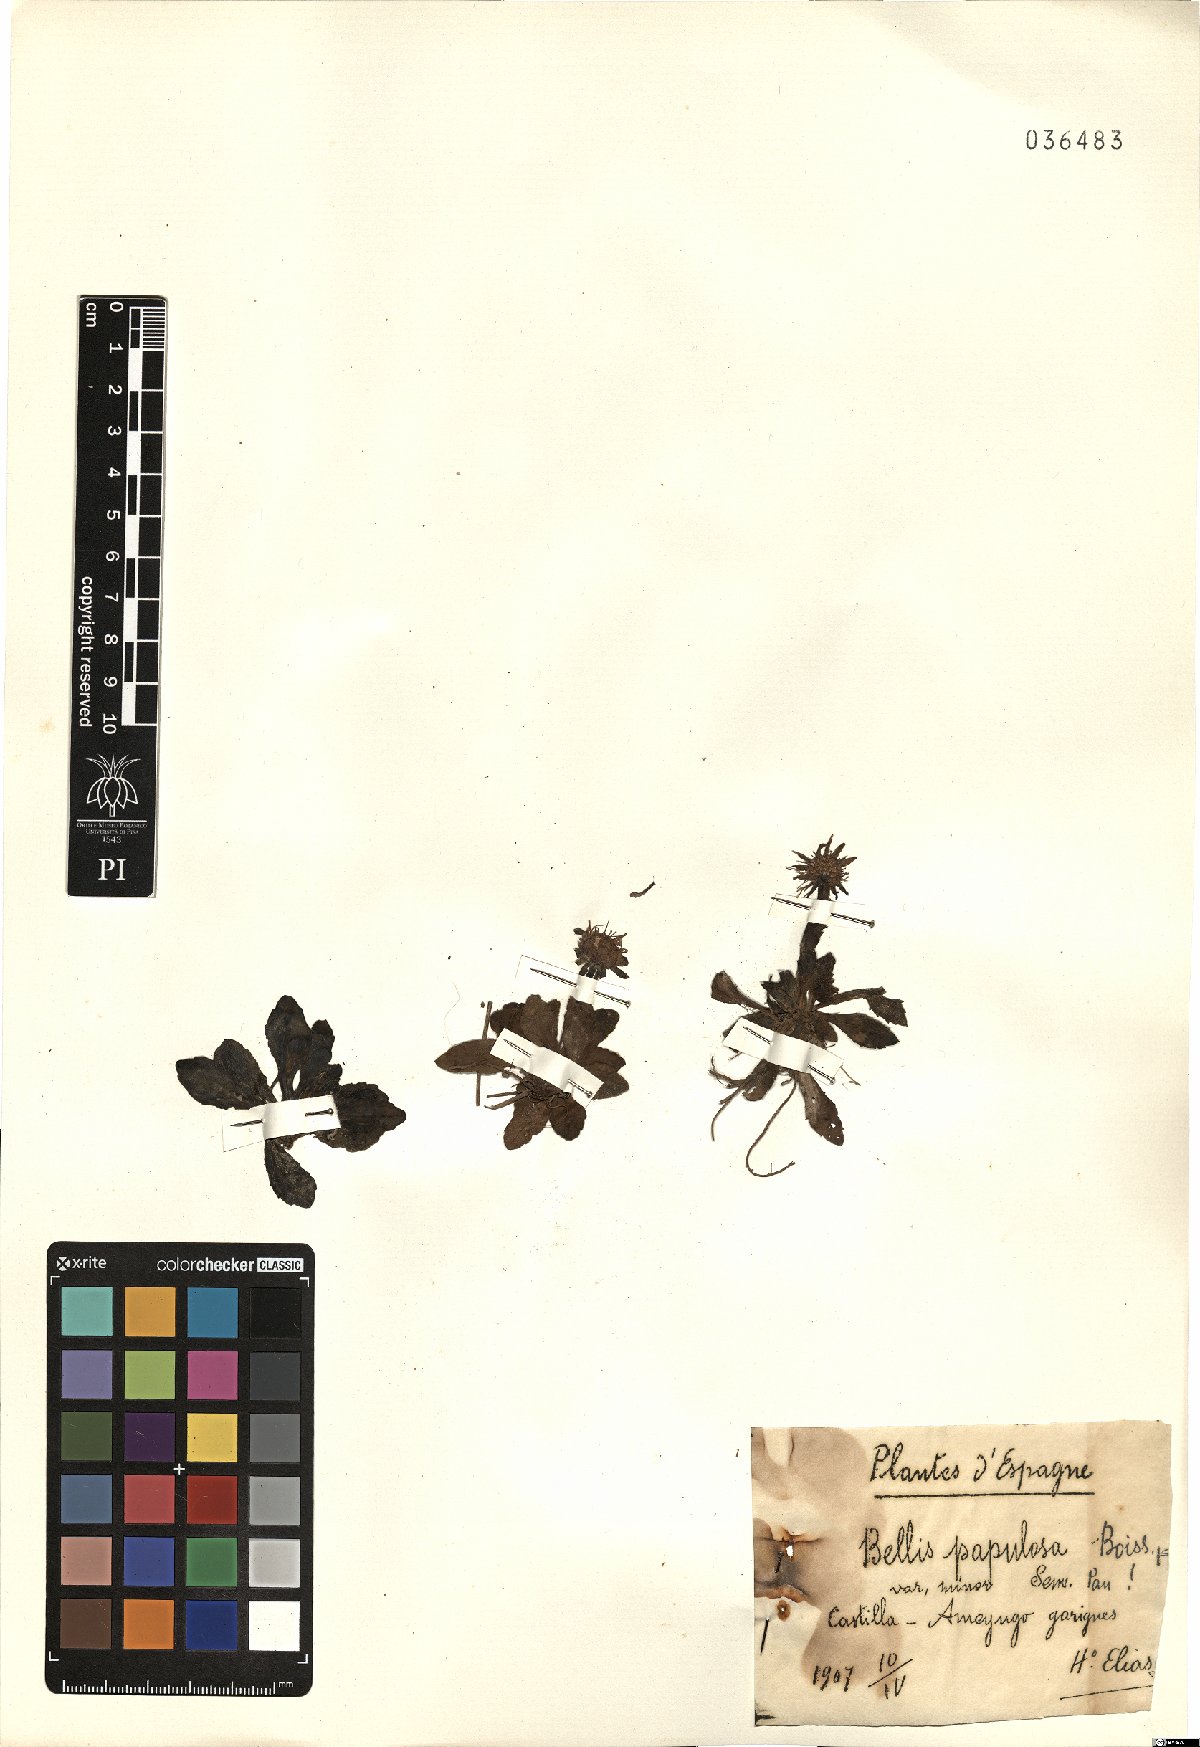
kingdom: Plantae
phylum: Tracheophyta
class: Magnoliopsida
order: Asterales
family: Asteraceae
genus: Bellis
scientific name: Bellis sylvestris
